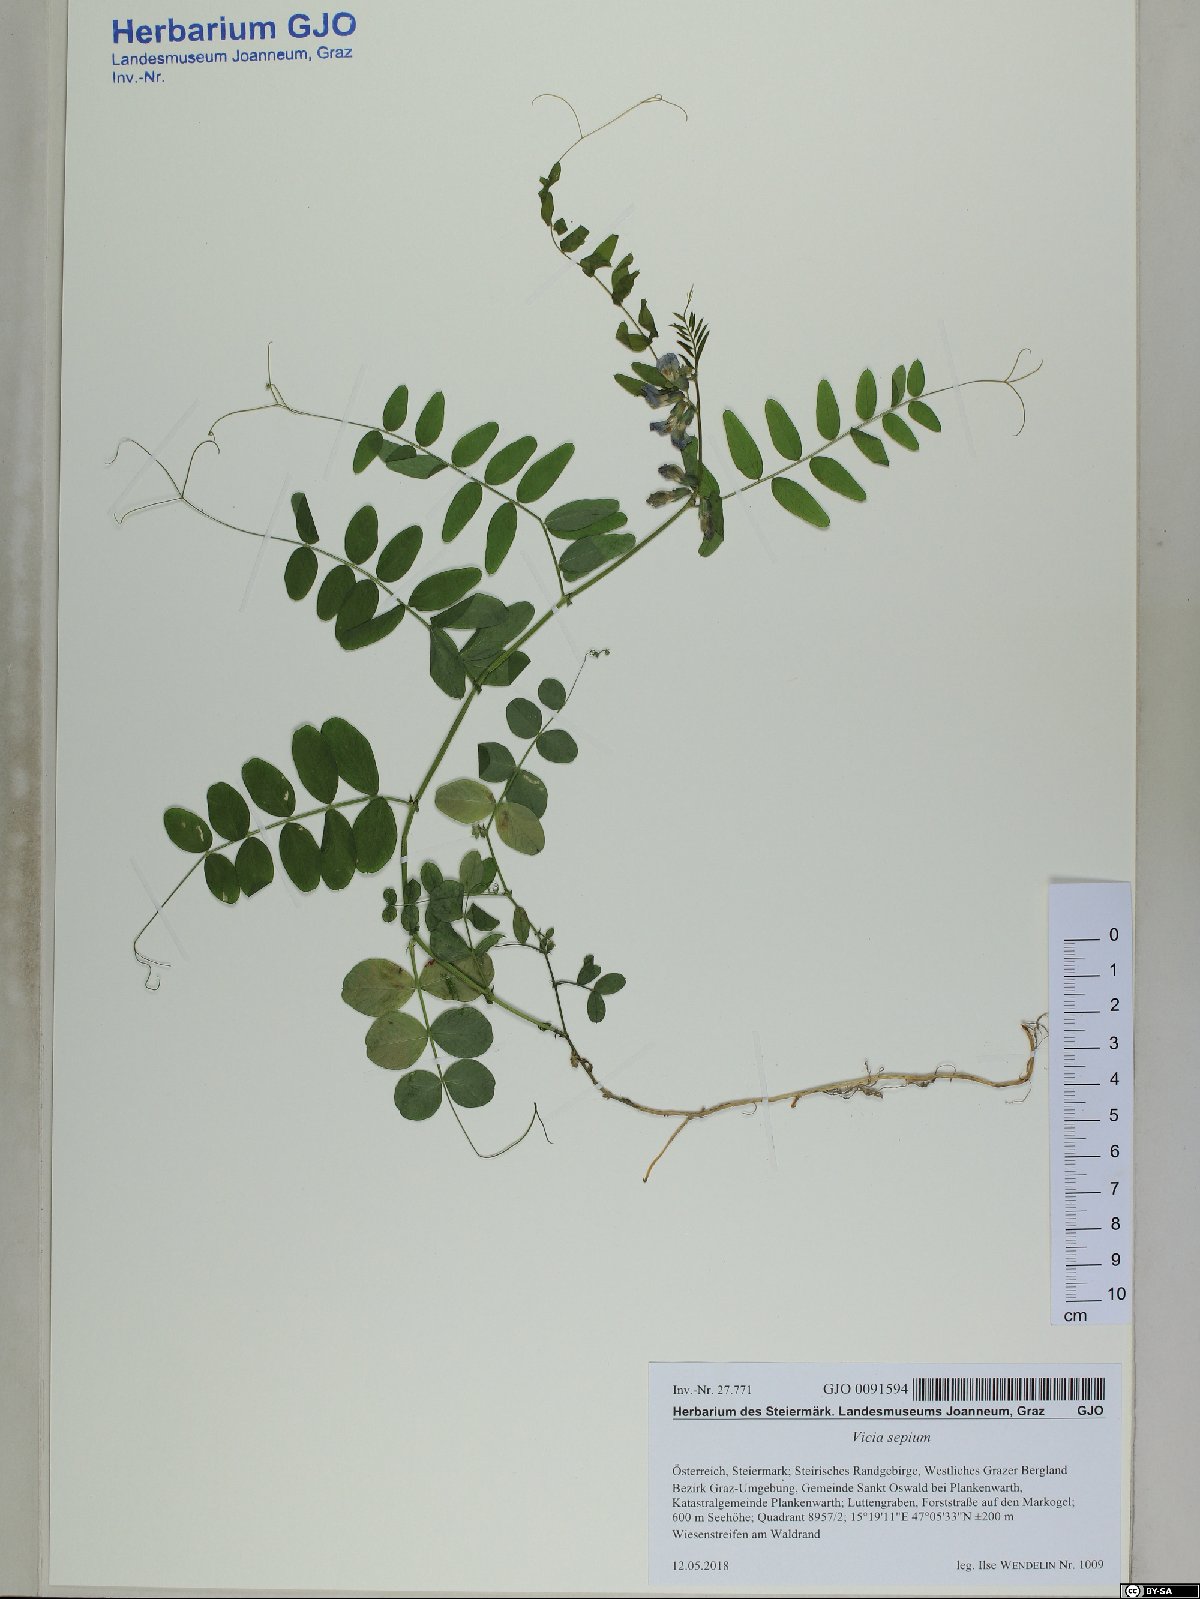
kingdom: Plantae
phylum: Tracheophyta
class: Magnoliopsida
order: Fabales
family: Fabaceae
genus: Vicia
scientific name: Vicia sepium
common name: Bush vetch
